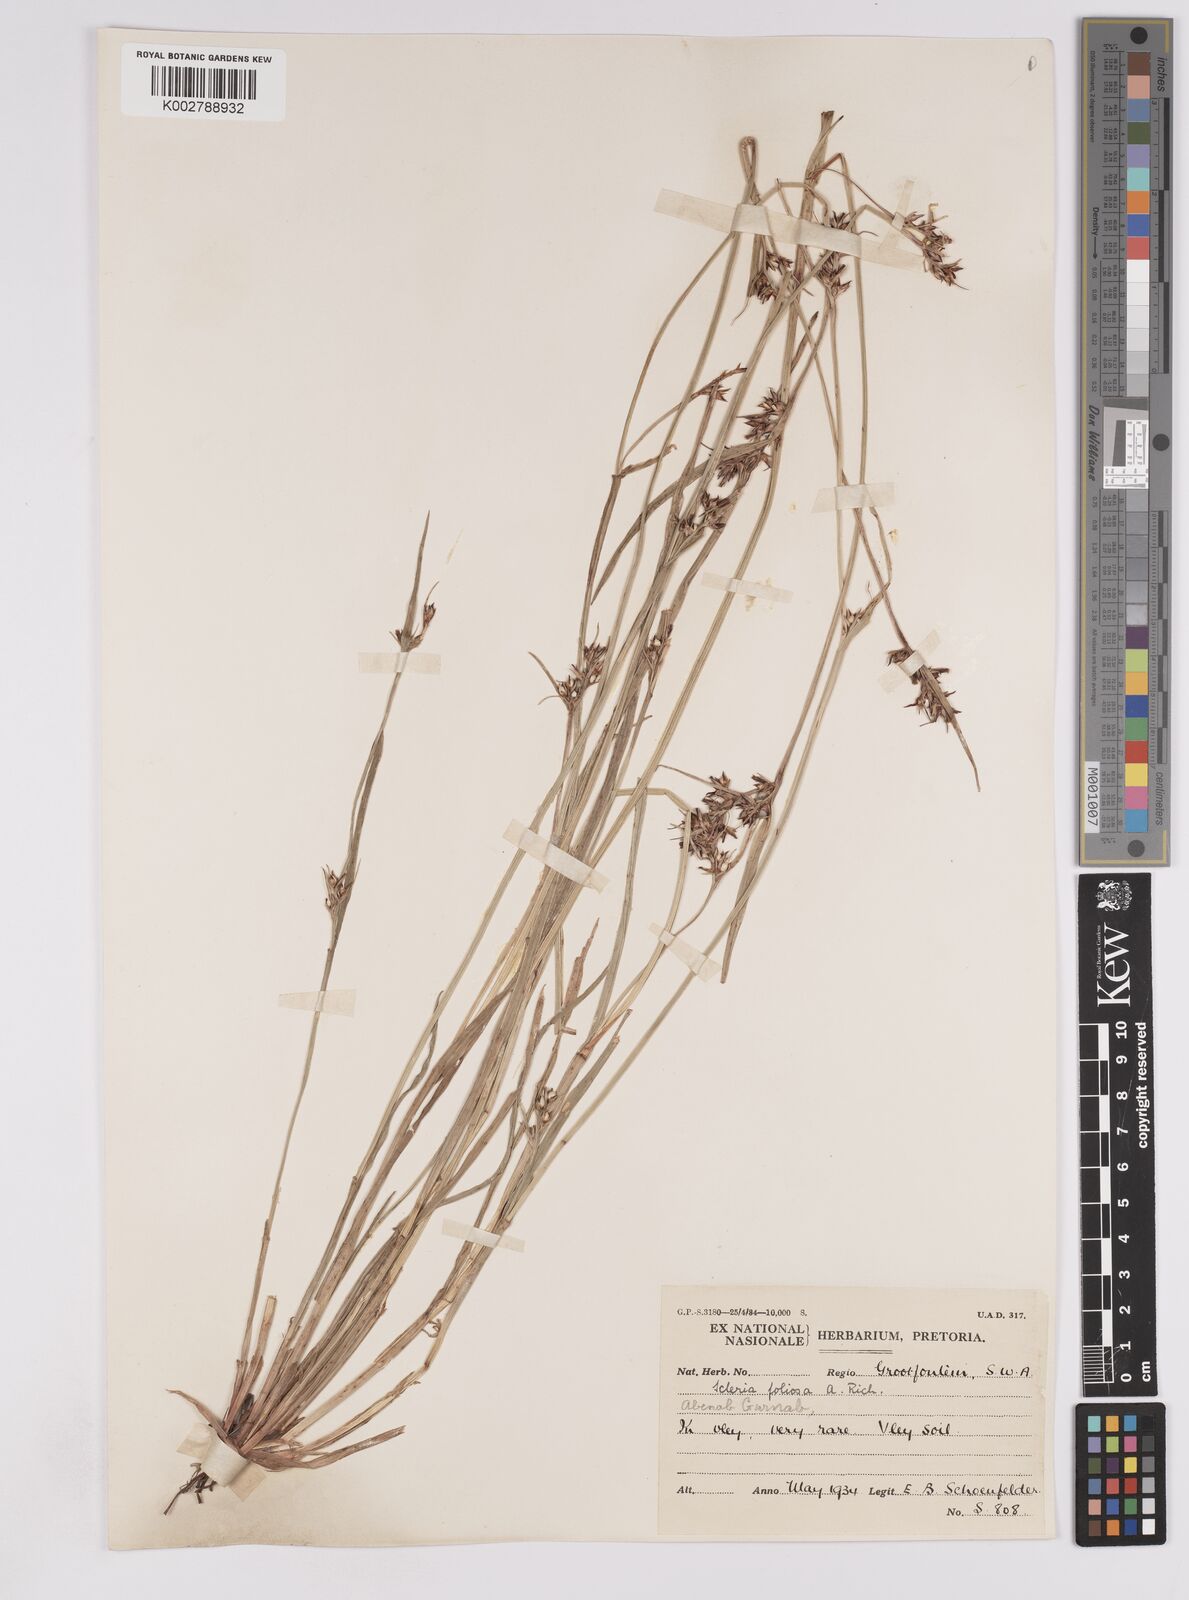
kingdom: Plantae
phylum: Tracheophyta
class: Liliopsida
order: Poales
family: Cyperaceae
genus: Scleria
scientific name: Scleria foliosa
